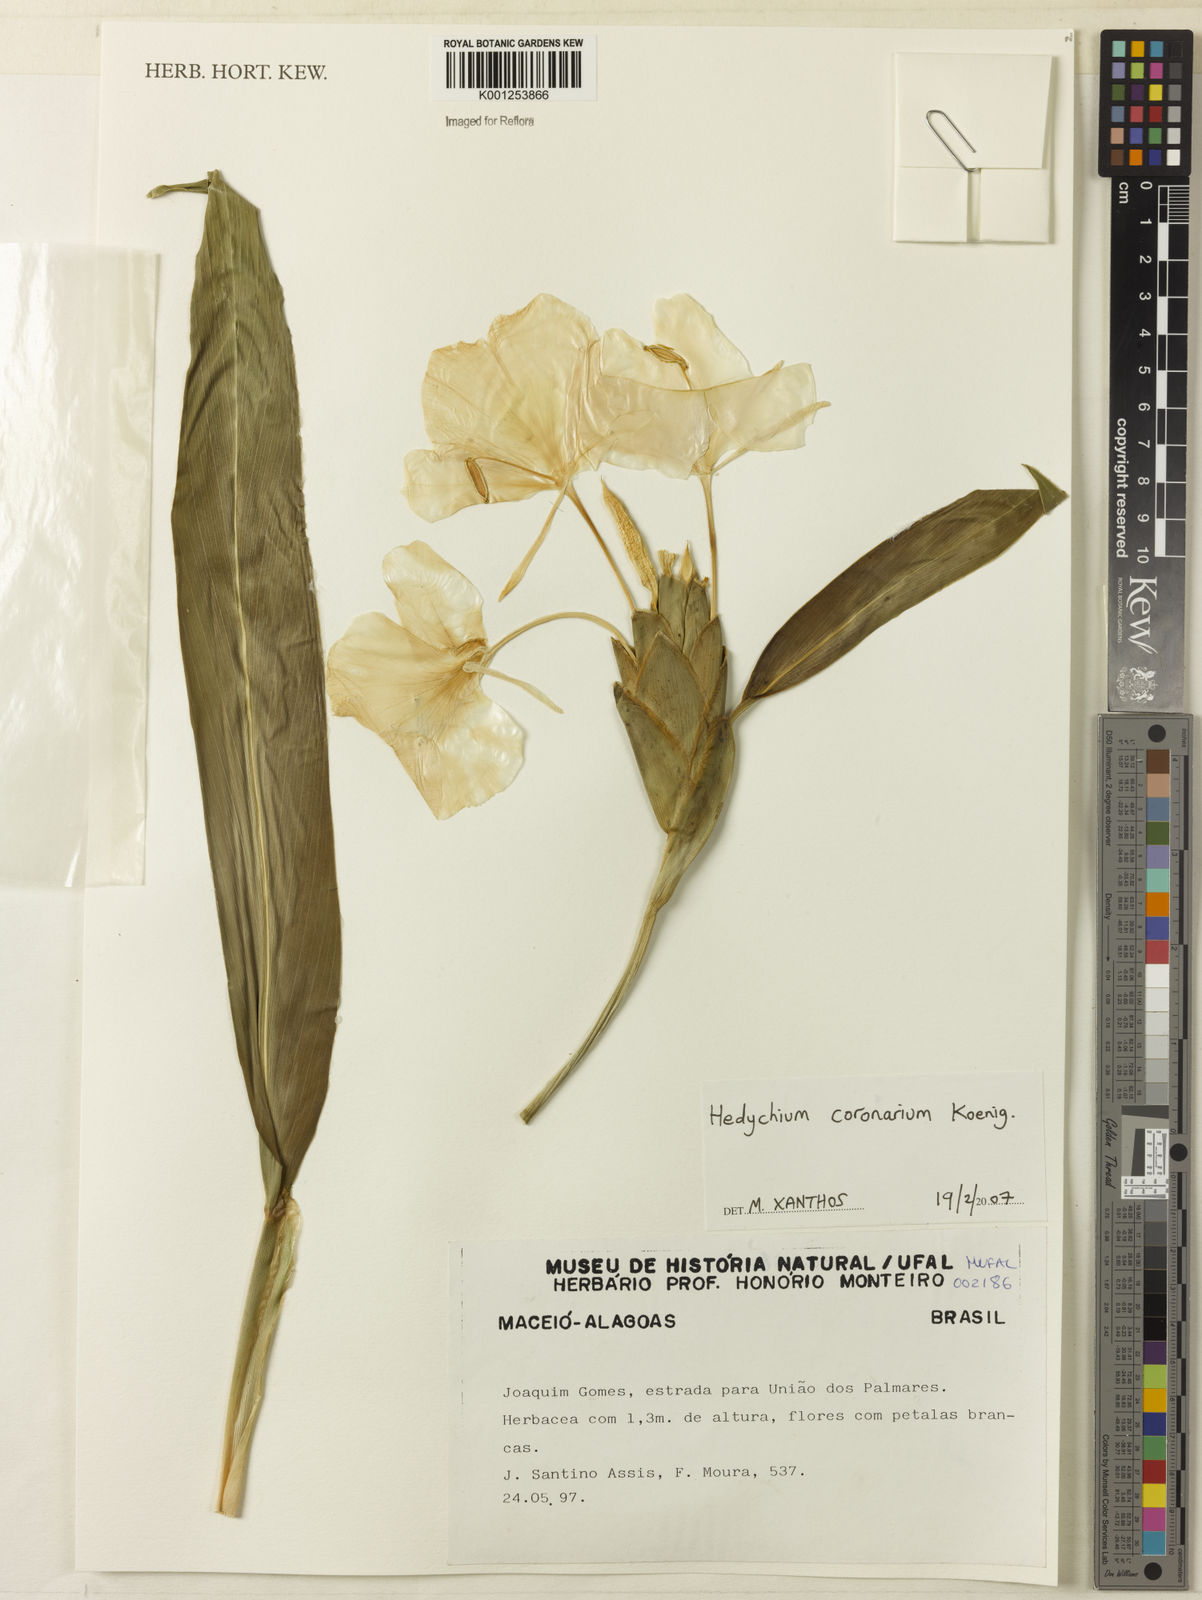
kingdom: Plantae
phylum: Tracheophyta
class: Liliopsida
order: Zingiberales
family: Zingiberaceae
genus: Hedychium
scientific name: Hedychium coronarium
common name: White garland-lily
